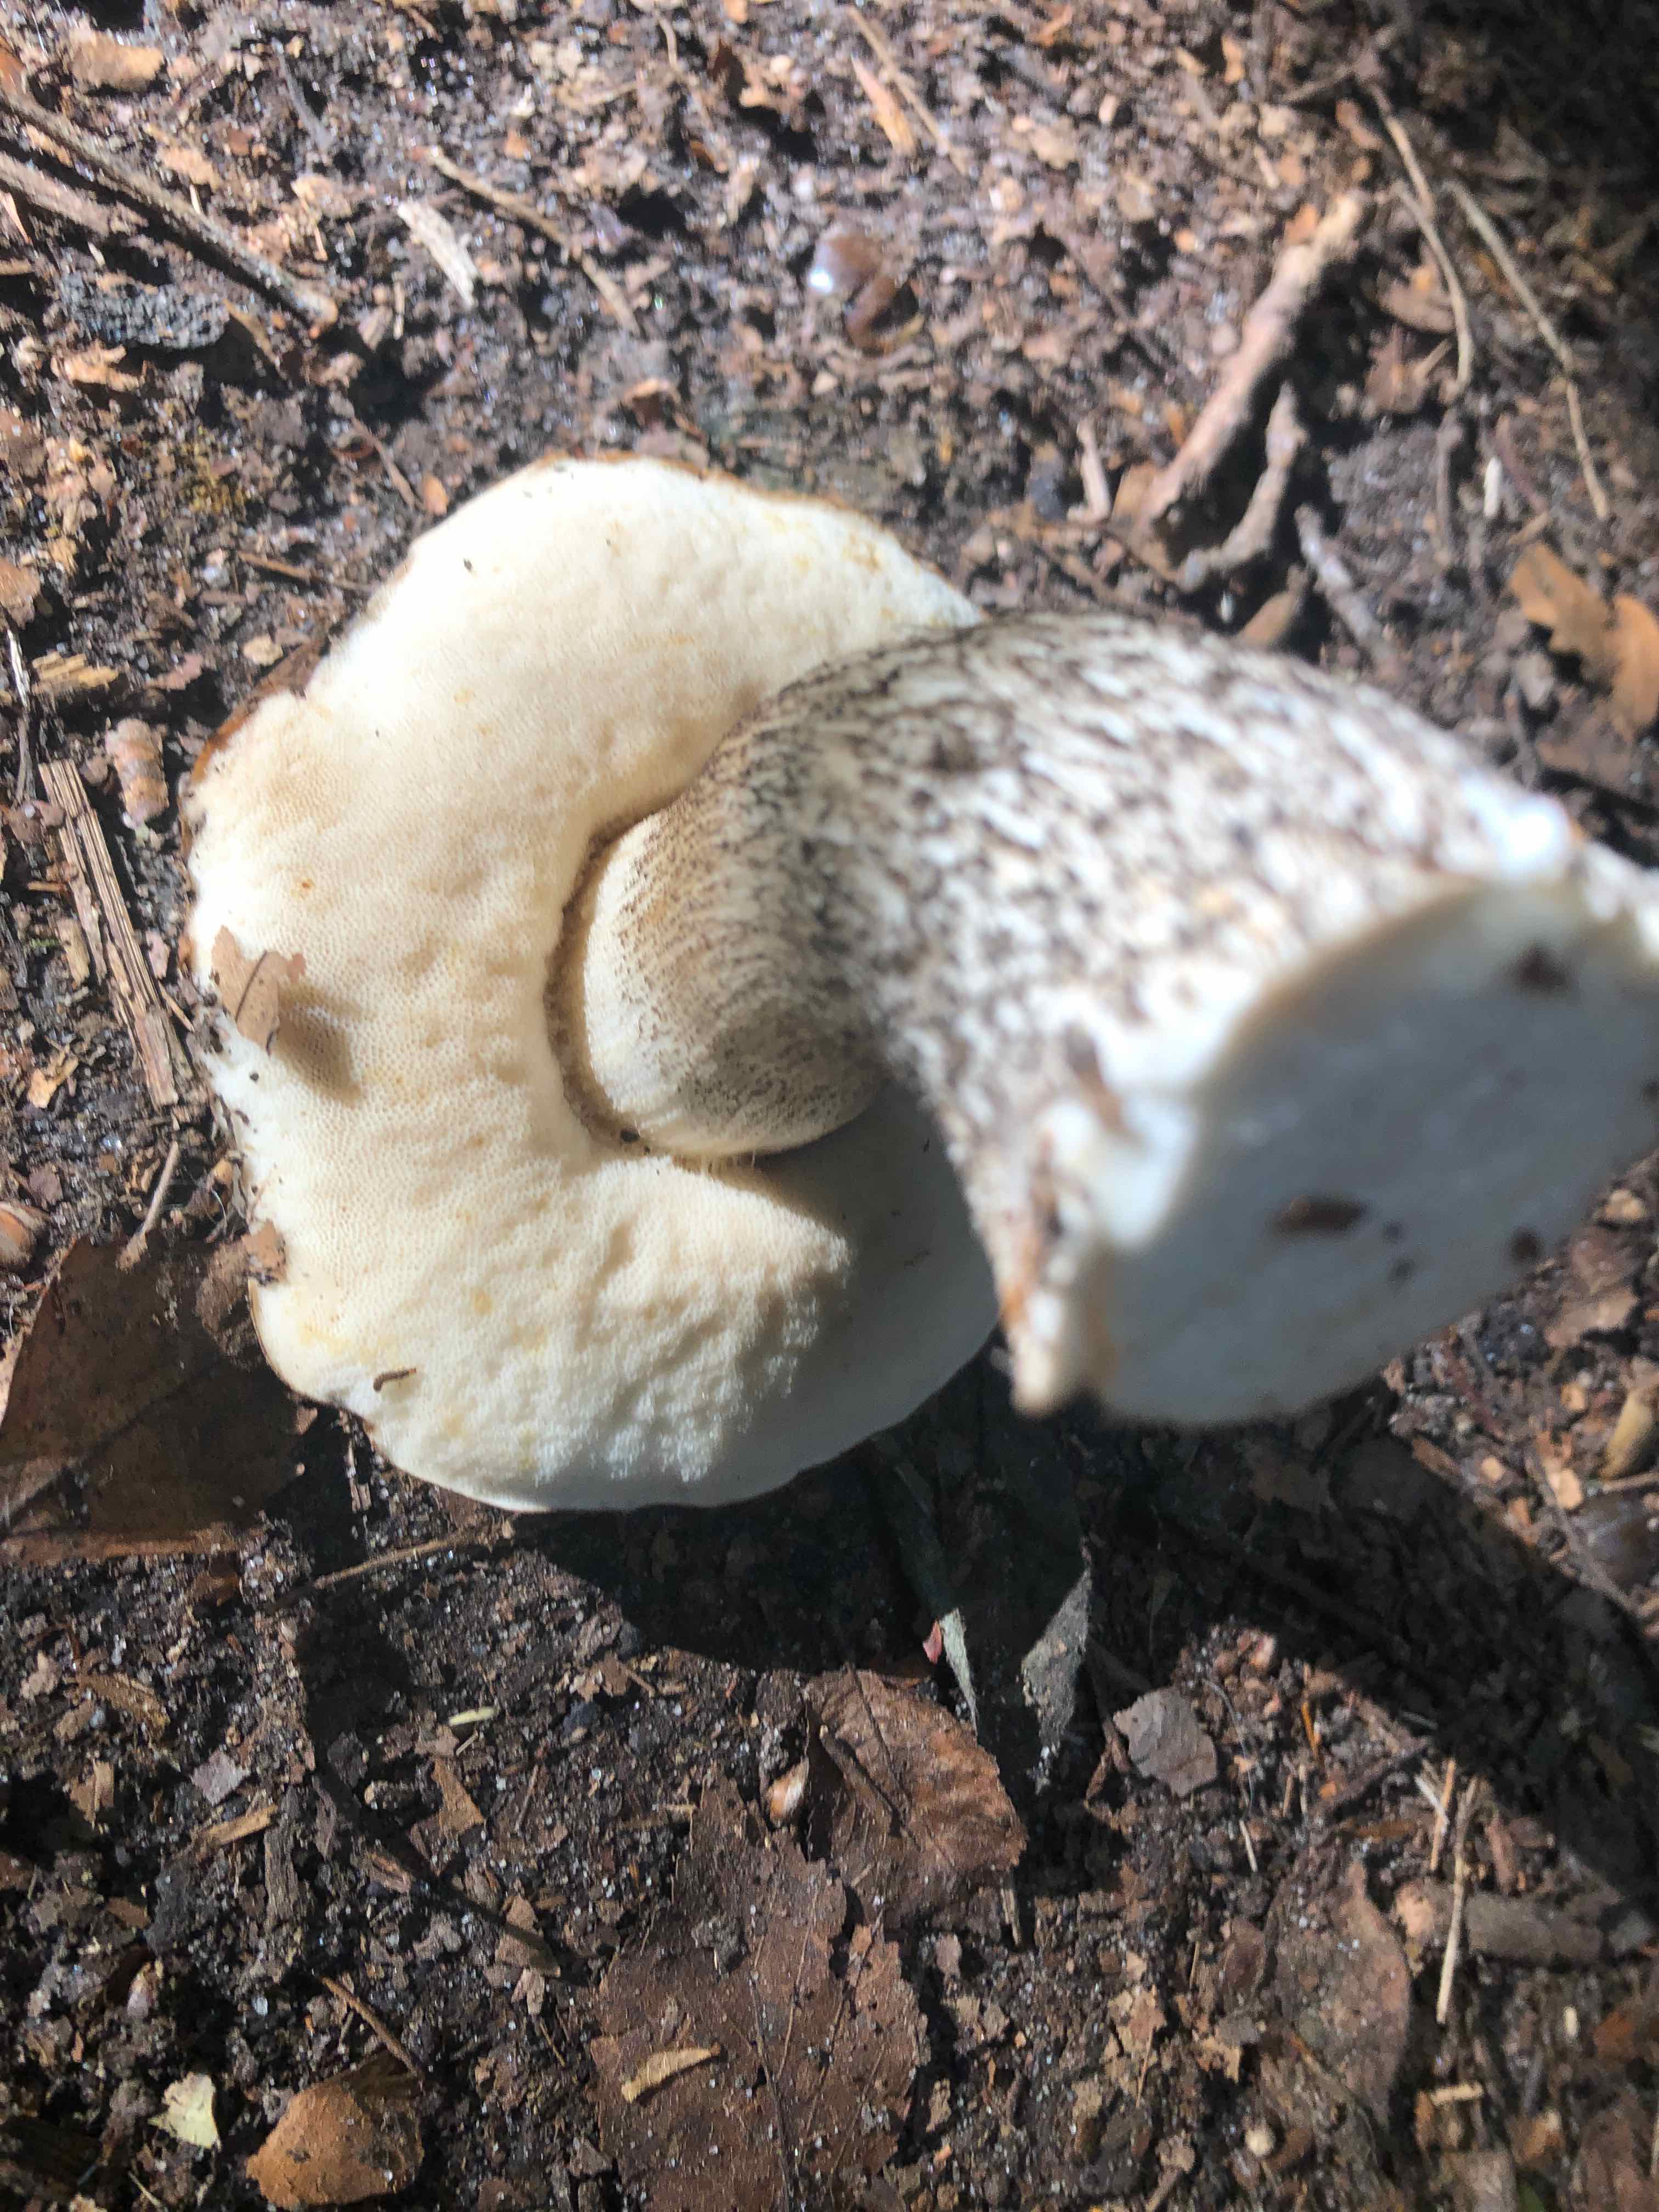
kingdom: Fungi
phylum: Basidiomycota
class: Agaricomycetes
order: Boletales
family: Boletaceae
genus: Leccinum
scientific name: Leccinum scabrum
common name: brun skælrørhat
